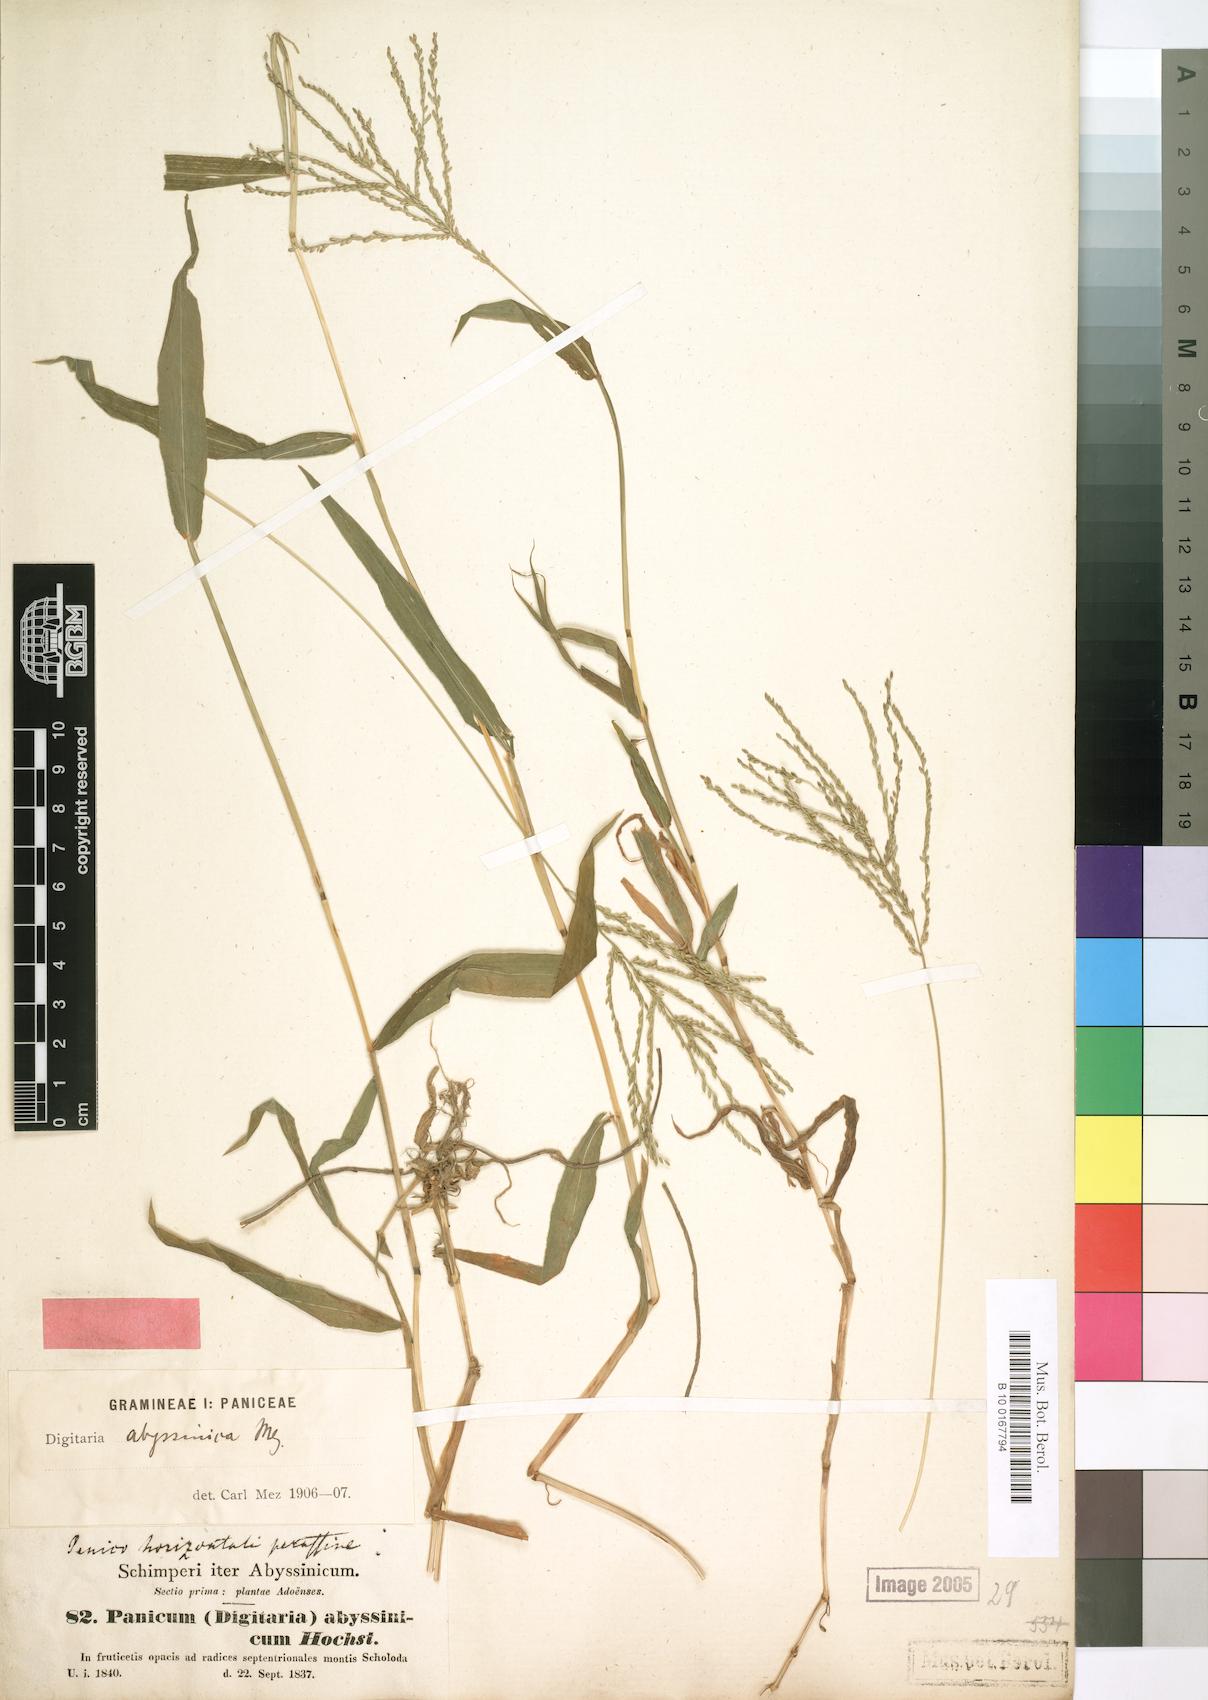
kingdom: Plantae
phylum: Tracheophyta
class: Liliopsida
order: Poales
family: Poaceae
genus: Digitaria
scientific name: Digitaria abyssinica
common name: African couchgrass
